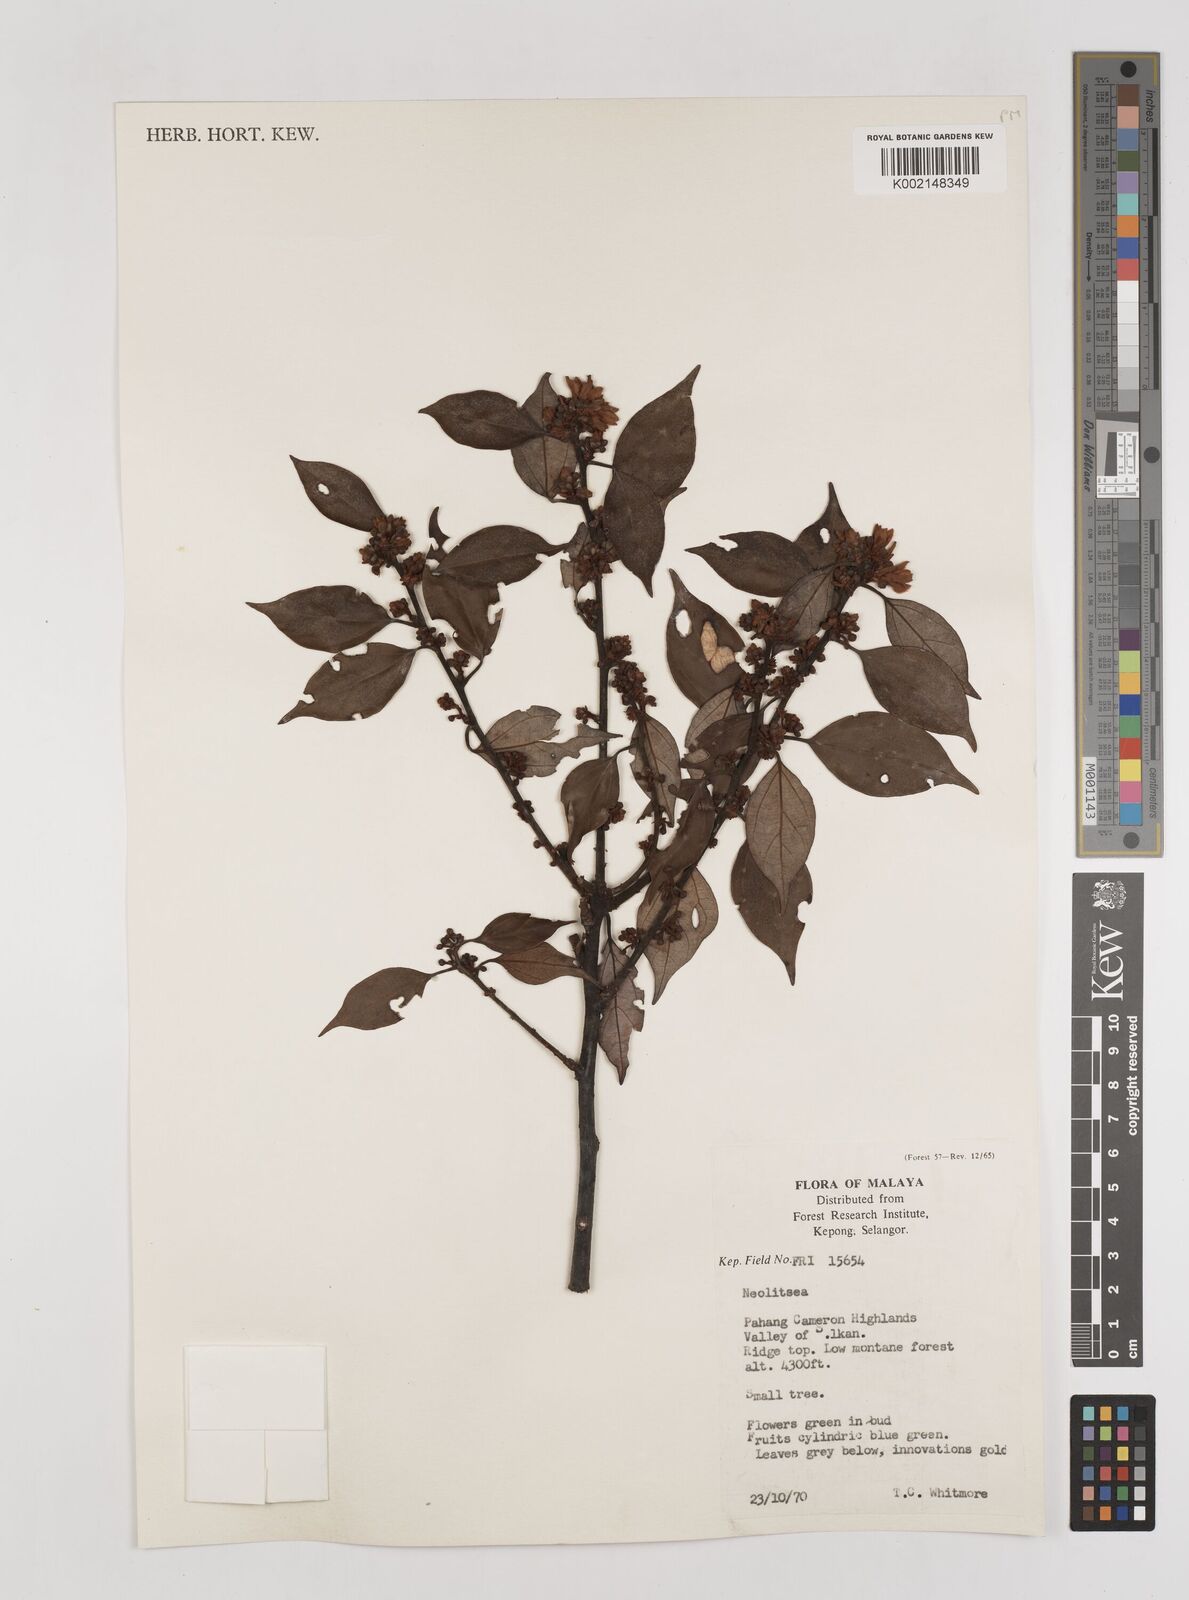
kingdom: Plantae
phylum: Tracheophyta
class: Magnoliopsida
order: Laurales
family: Lauraceae
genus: Neolitsea
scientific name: Neolitsea
